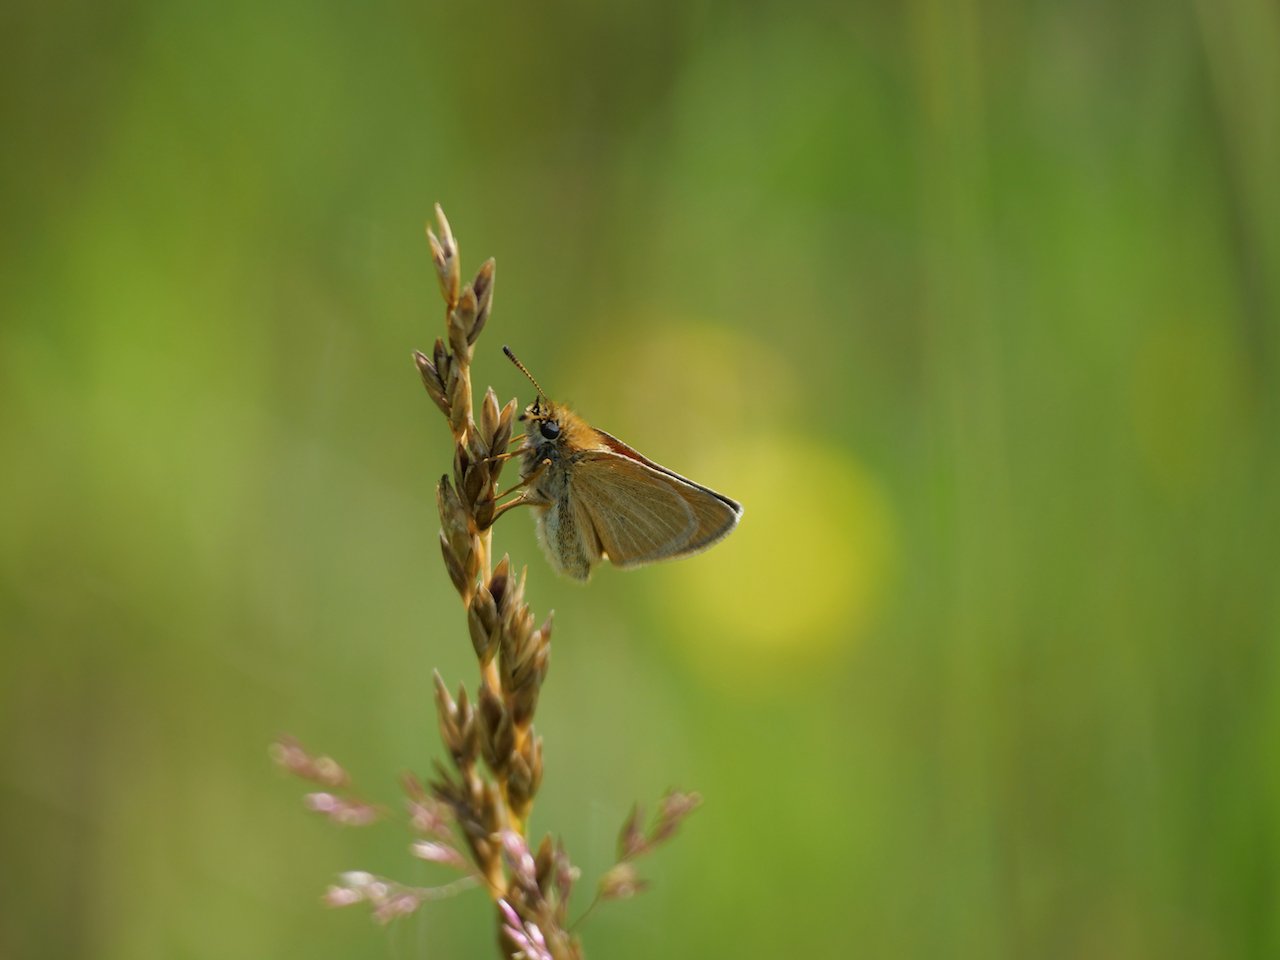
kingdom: Animalia
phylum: Arthropoda
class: Insecta
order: Lepidoptera
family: Hesperiidae
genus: Thymelicus
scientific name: Thymelicus lineola
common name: European Skipper
